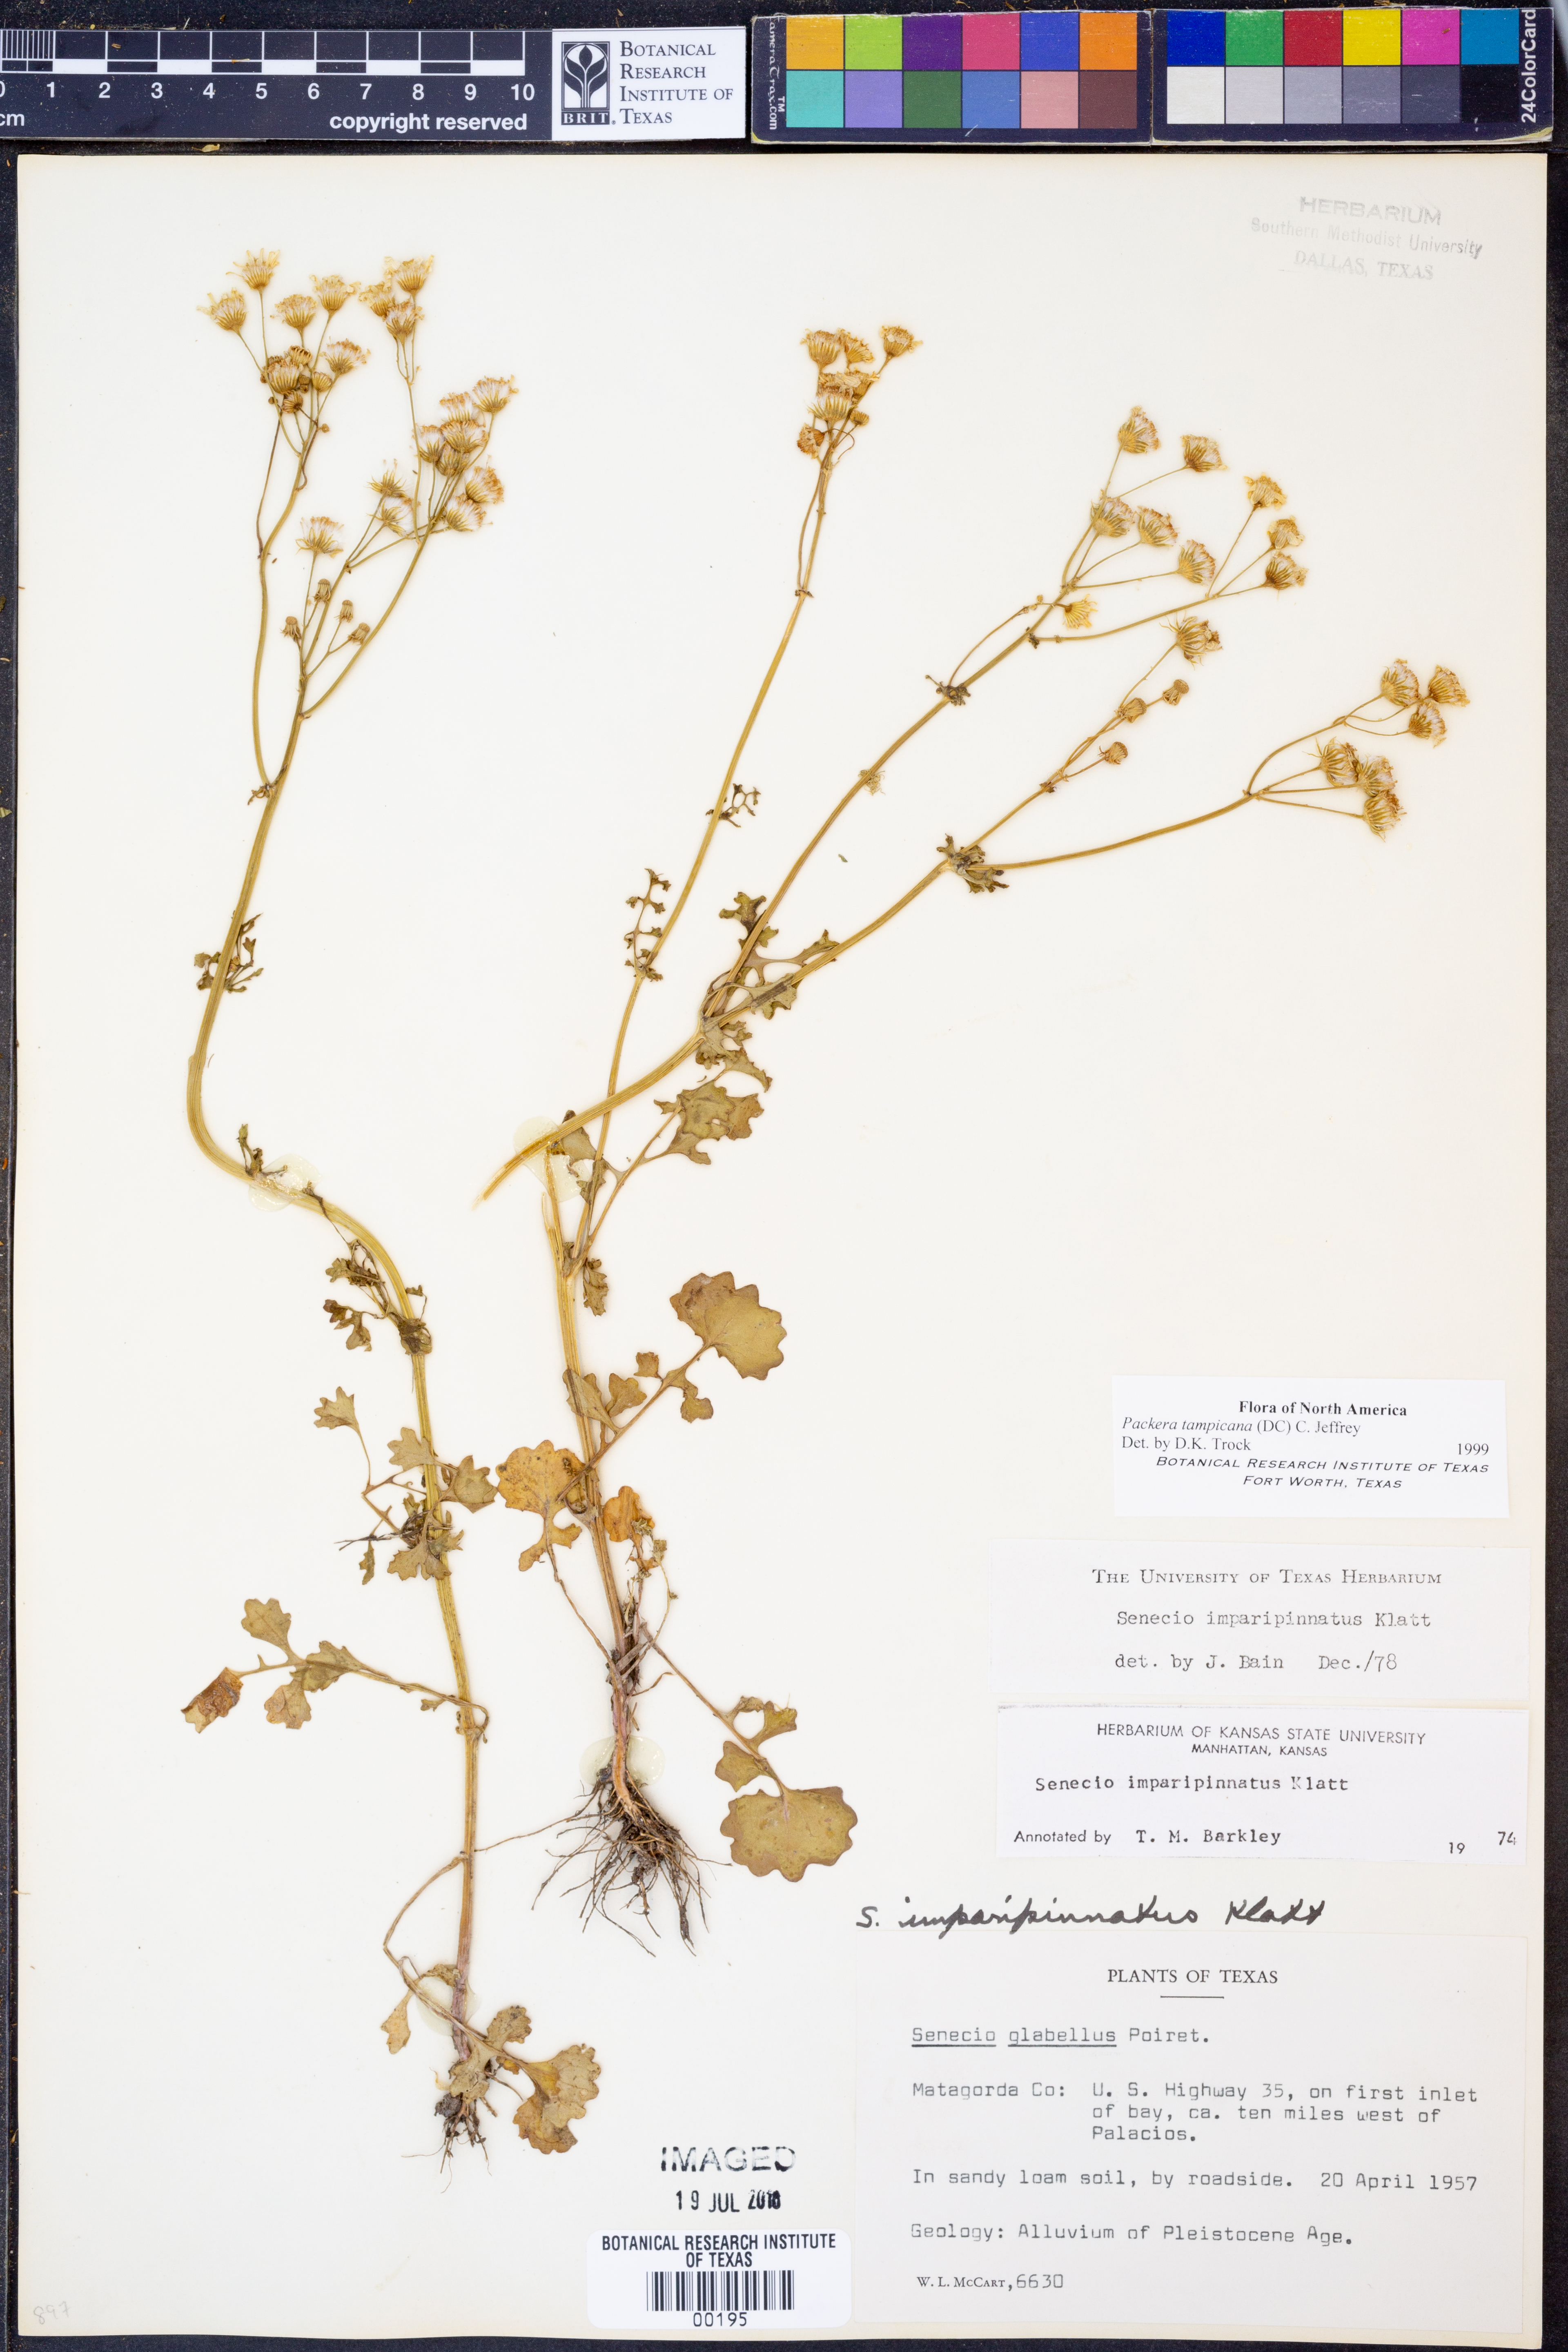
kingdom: Plantae
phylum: Tracheophyta
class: Magnoliopsida
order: Asterales
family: Asteraceae
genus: Packera
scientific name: Packera tampicana
